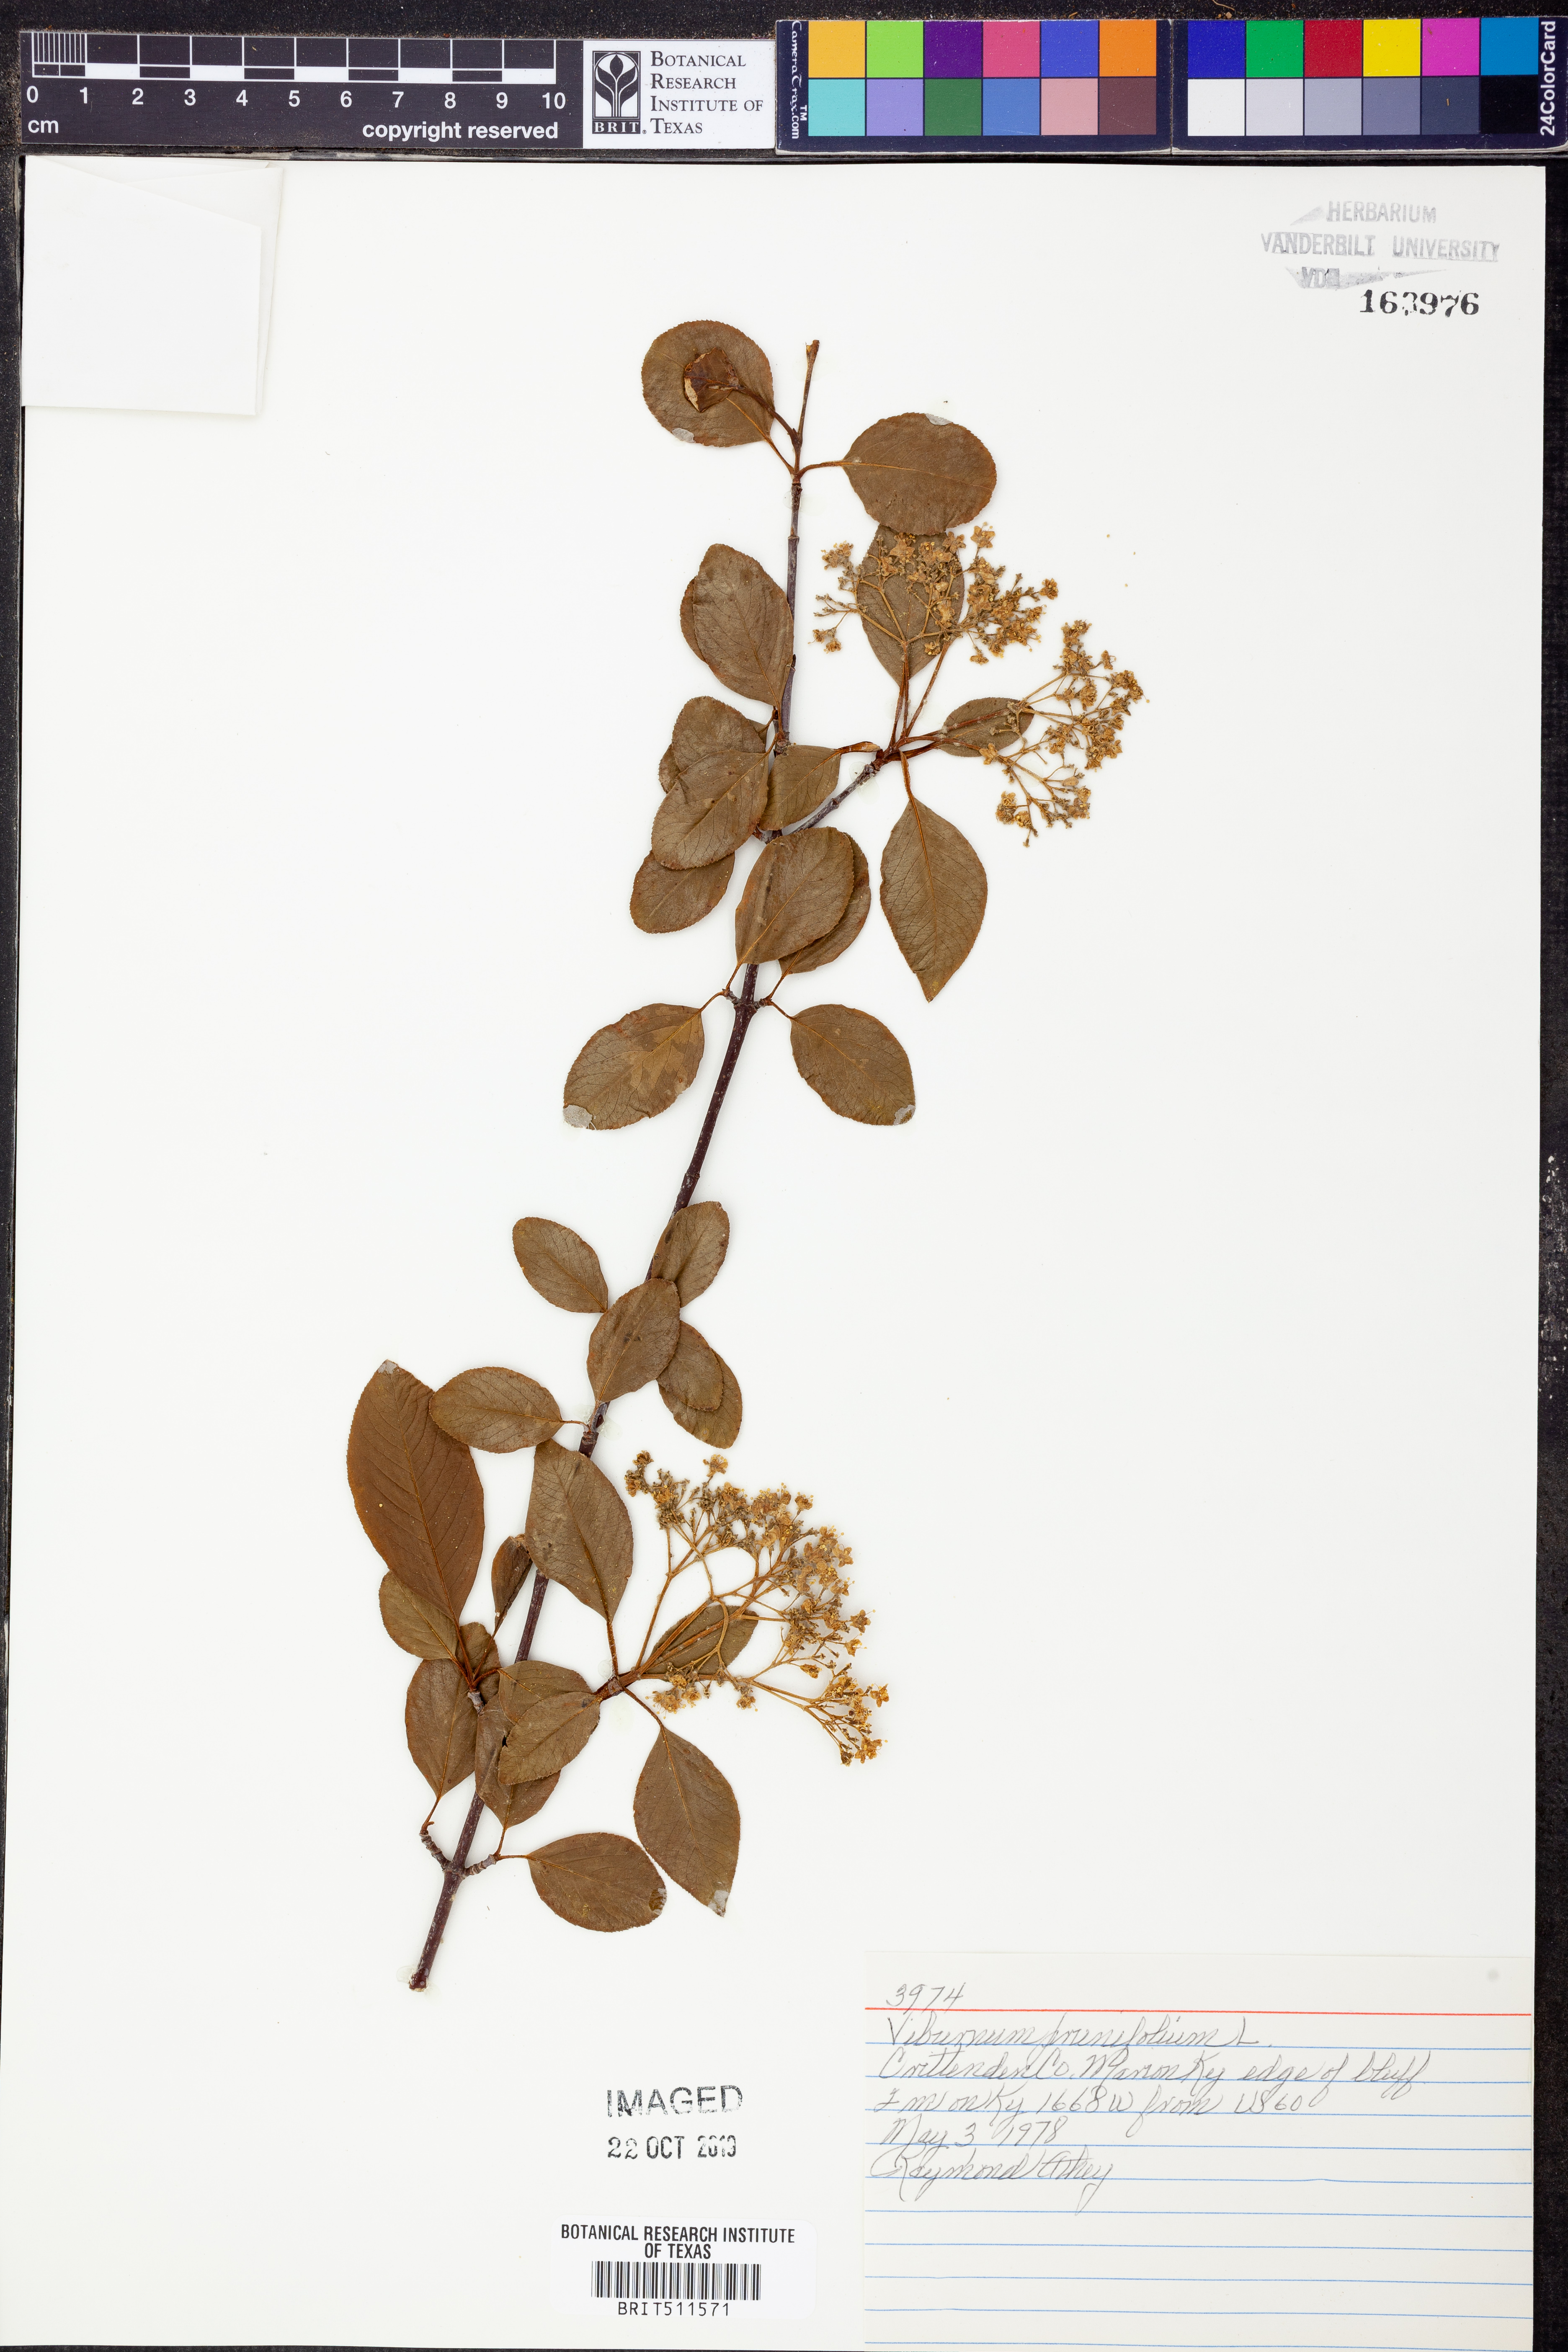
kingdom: Plantae
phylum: Tracheophyta
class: Magnoliopsida
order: Dipsacales
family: Viburnaceae
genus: Viburnum
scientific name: Viburnum prunifolium
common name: Black haw
